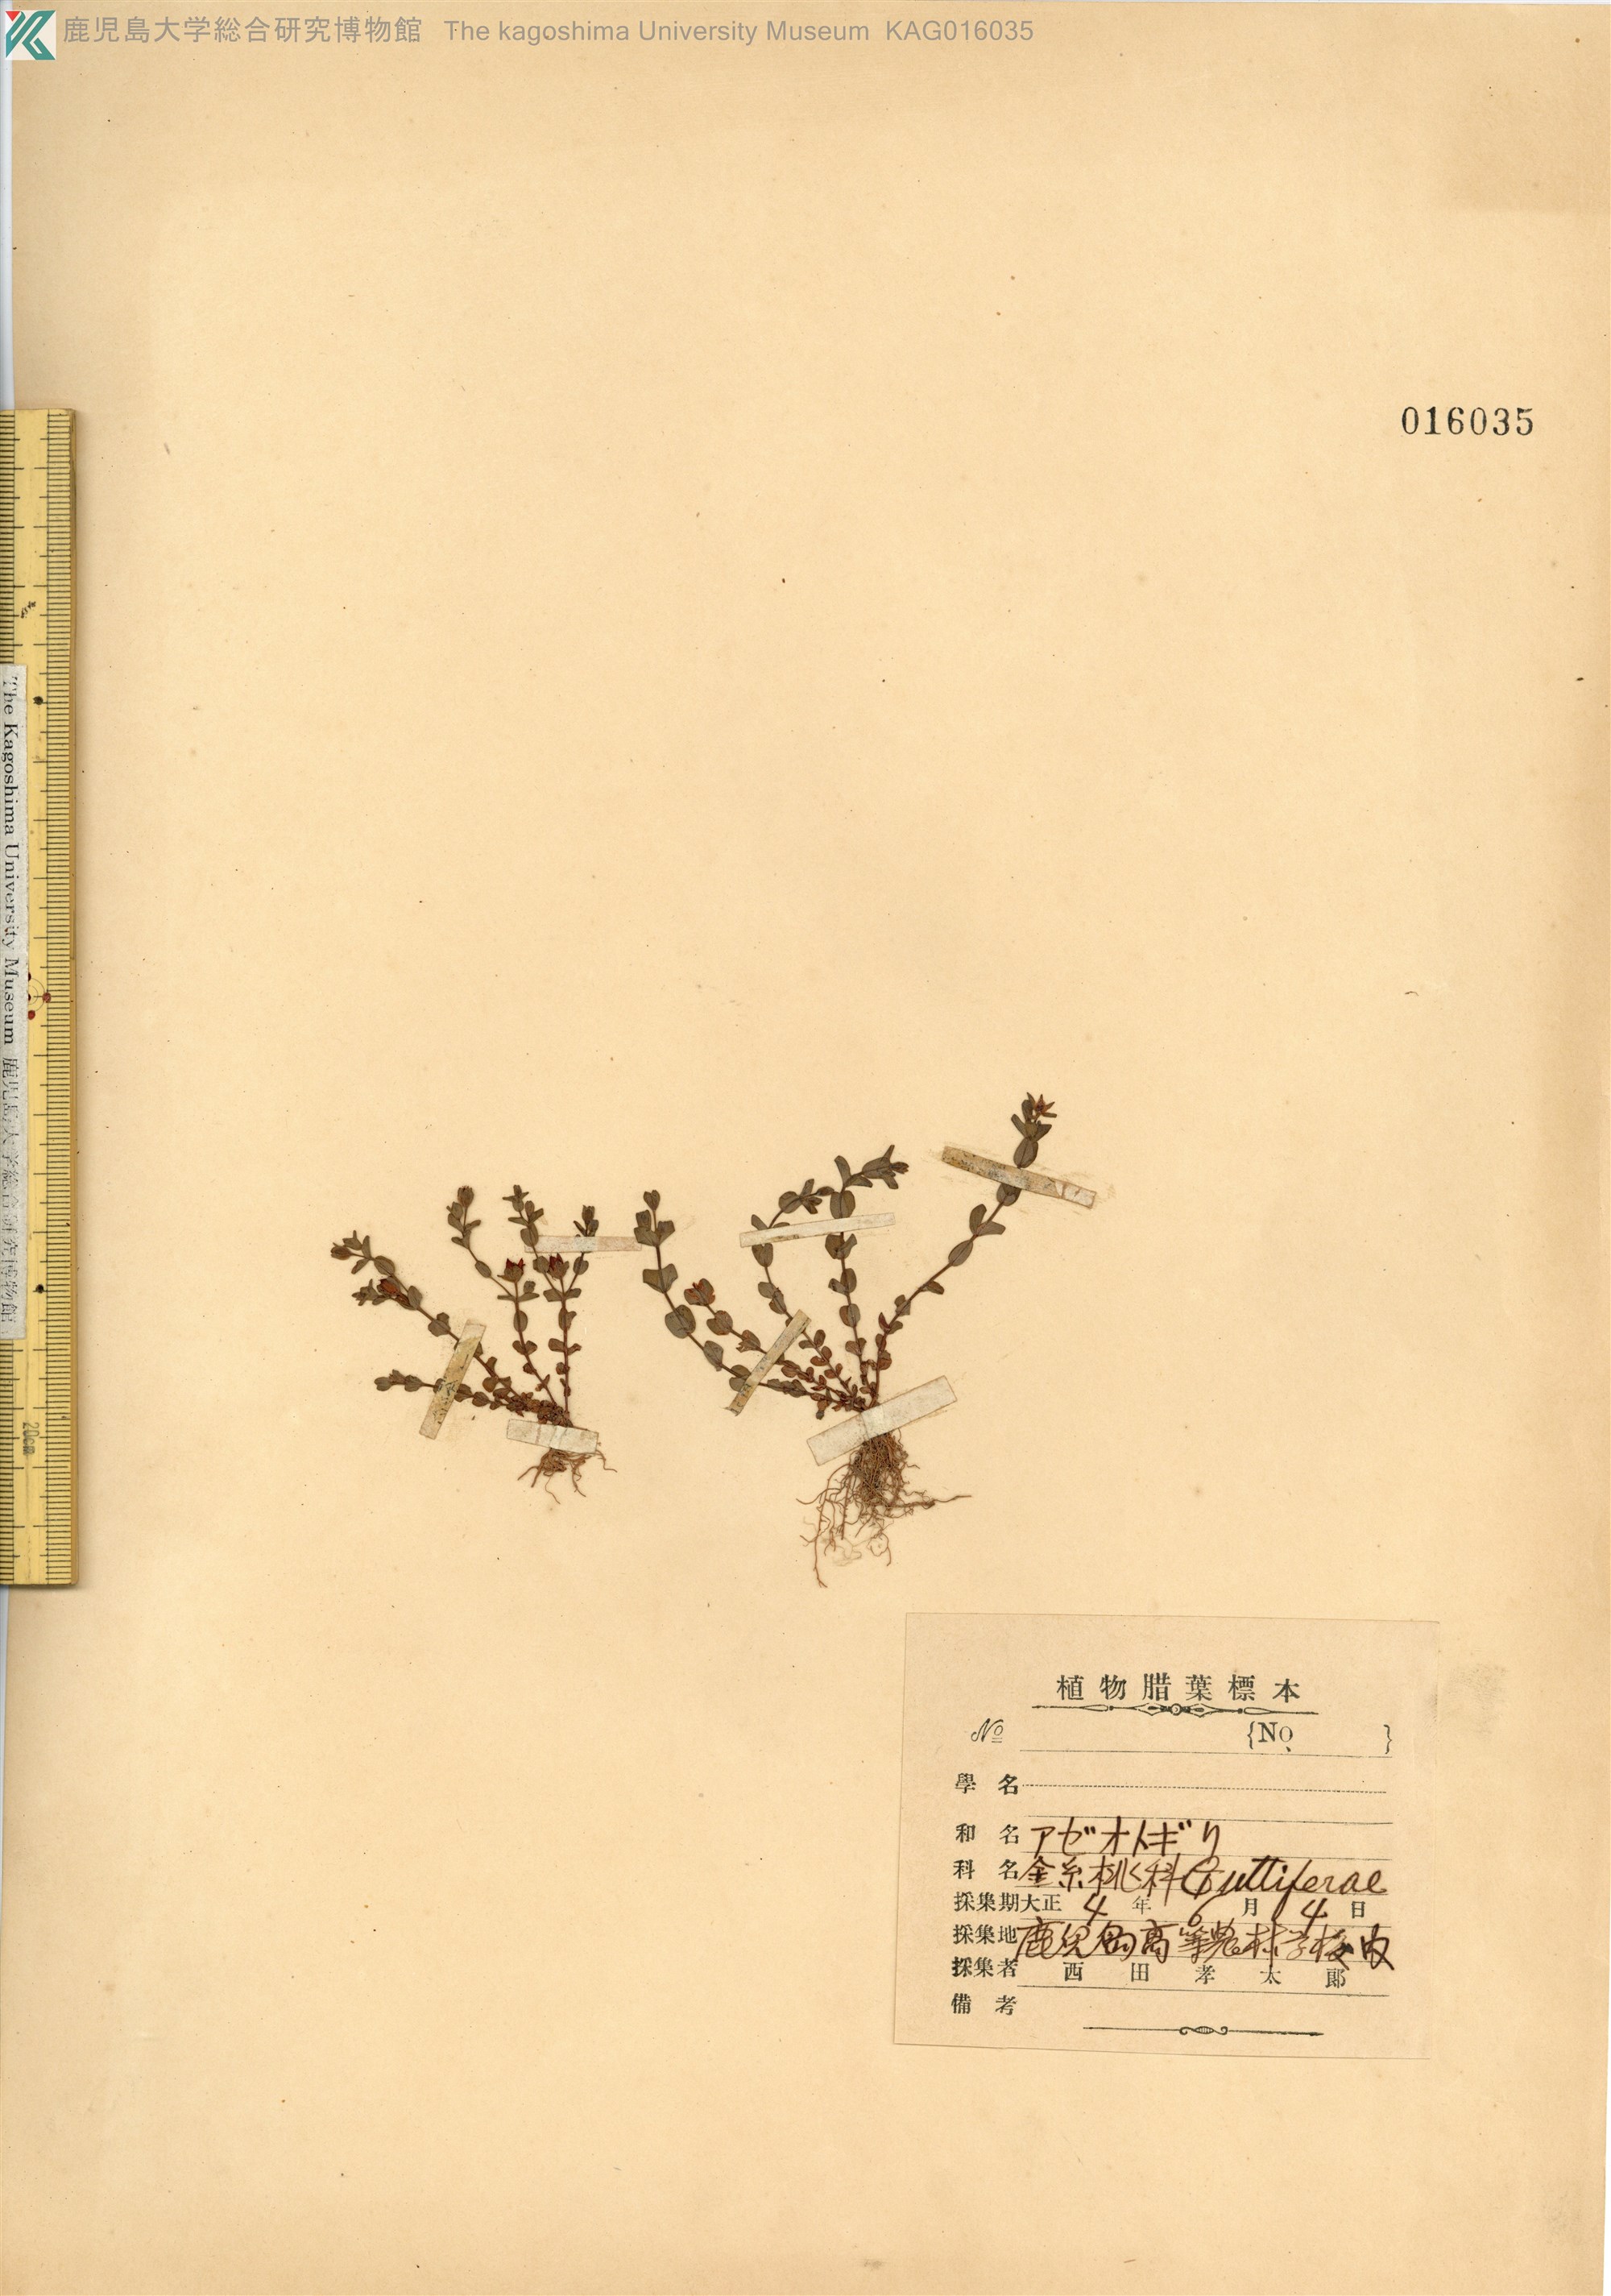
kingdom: Plantae
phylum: Tracheophyta
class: Magnoliopsida
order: Malpighiales
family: Hypericaceae
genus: Hypericum
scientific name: Hypericum japonicum
